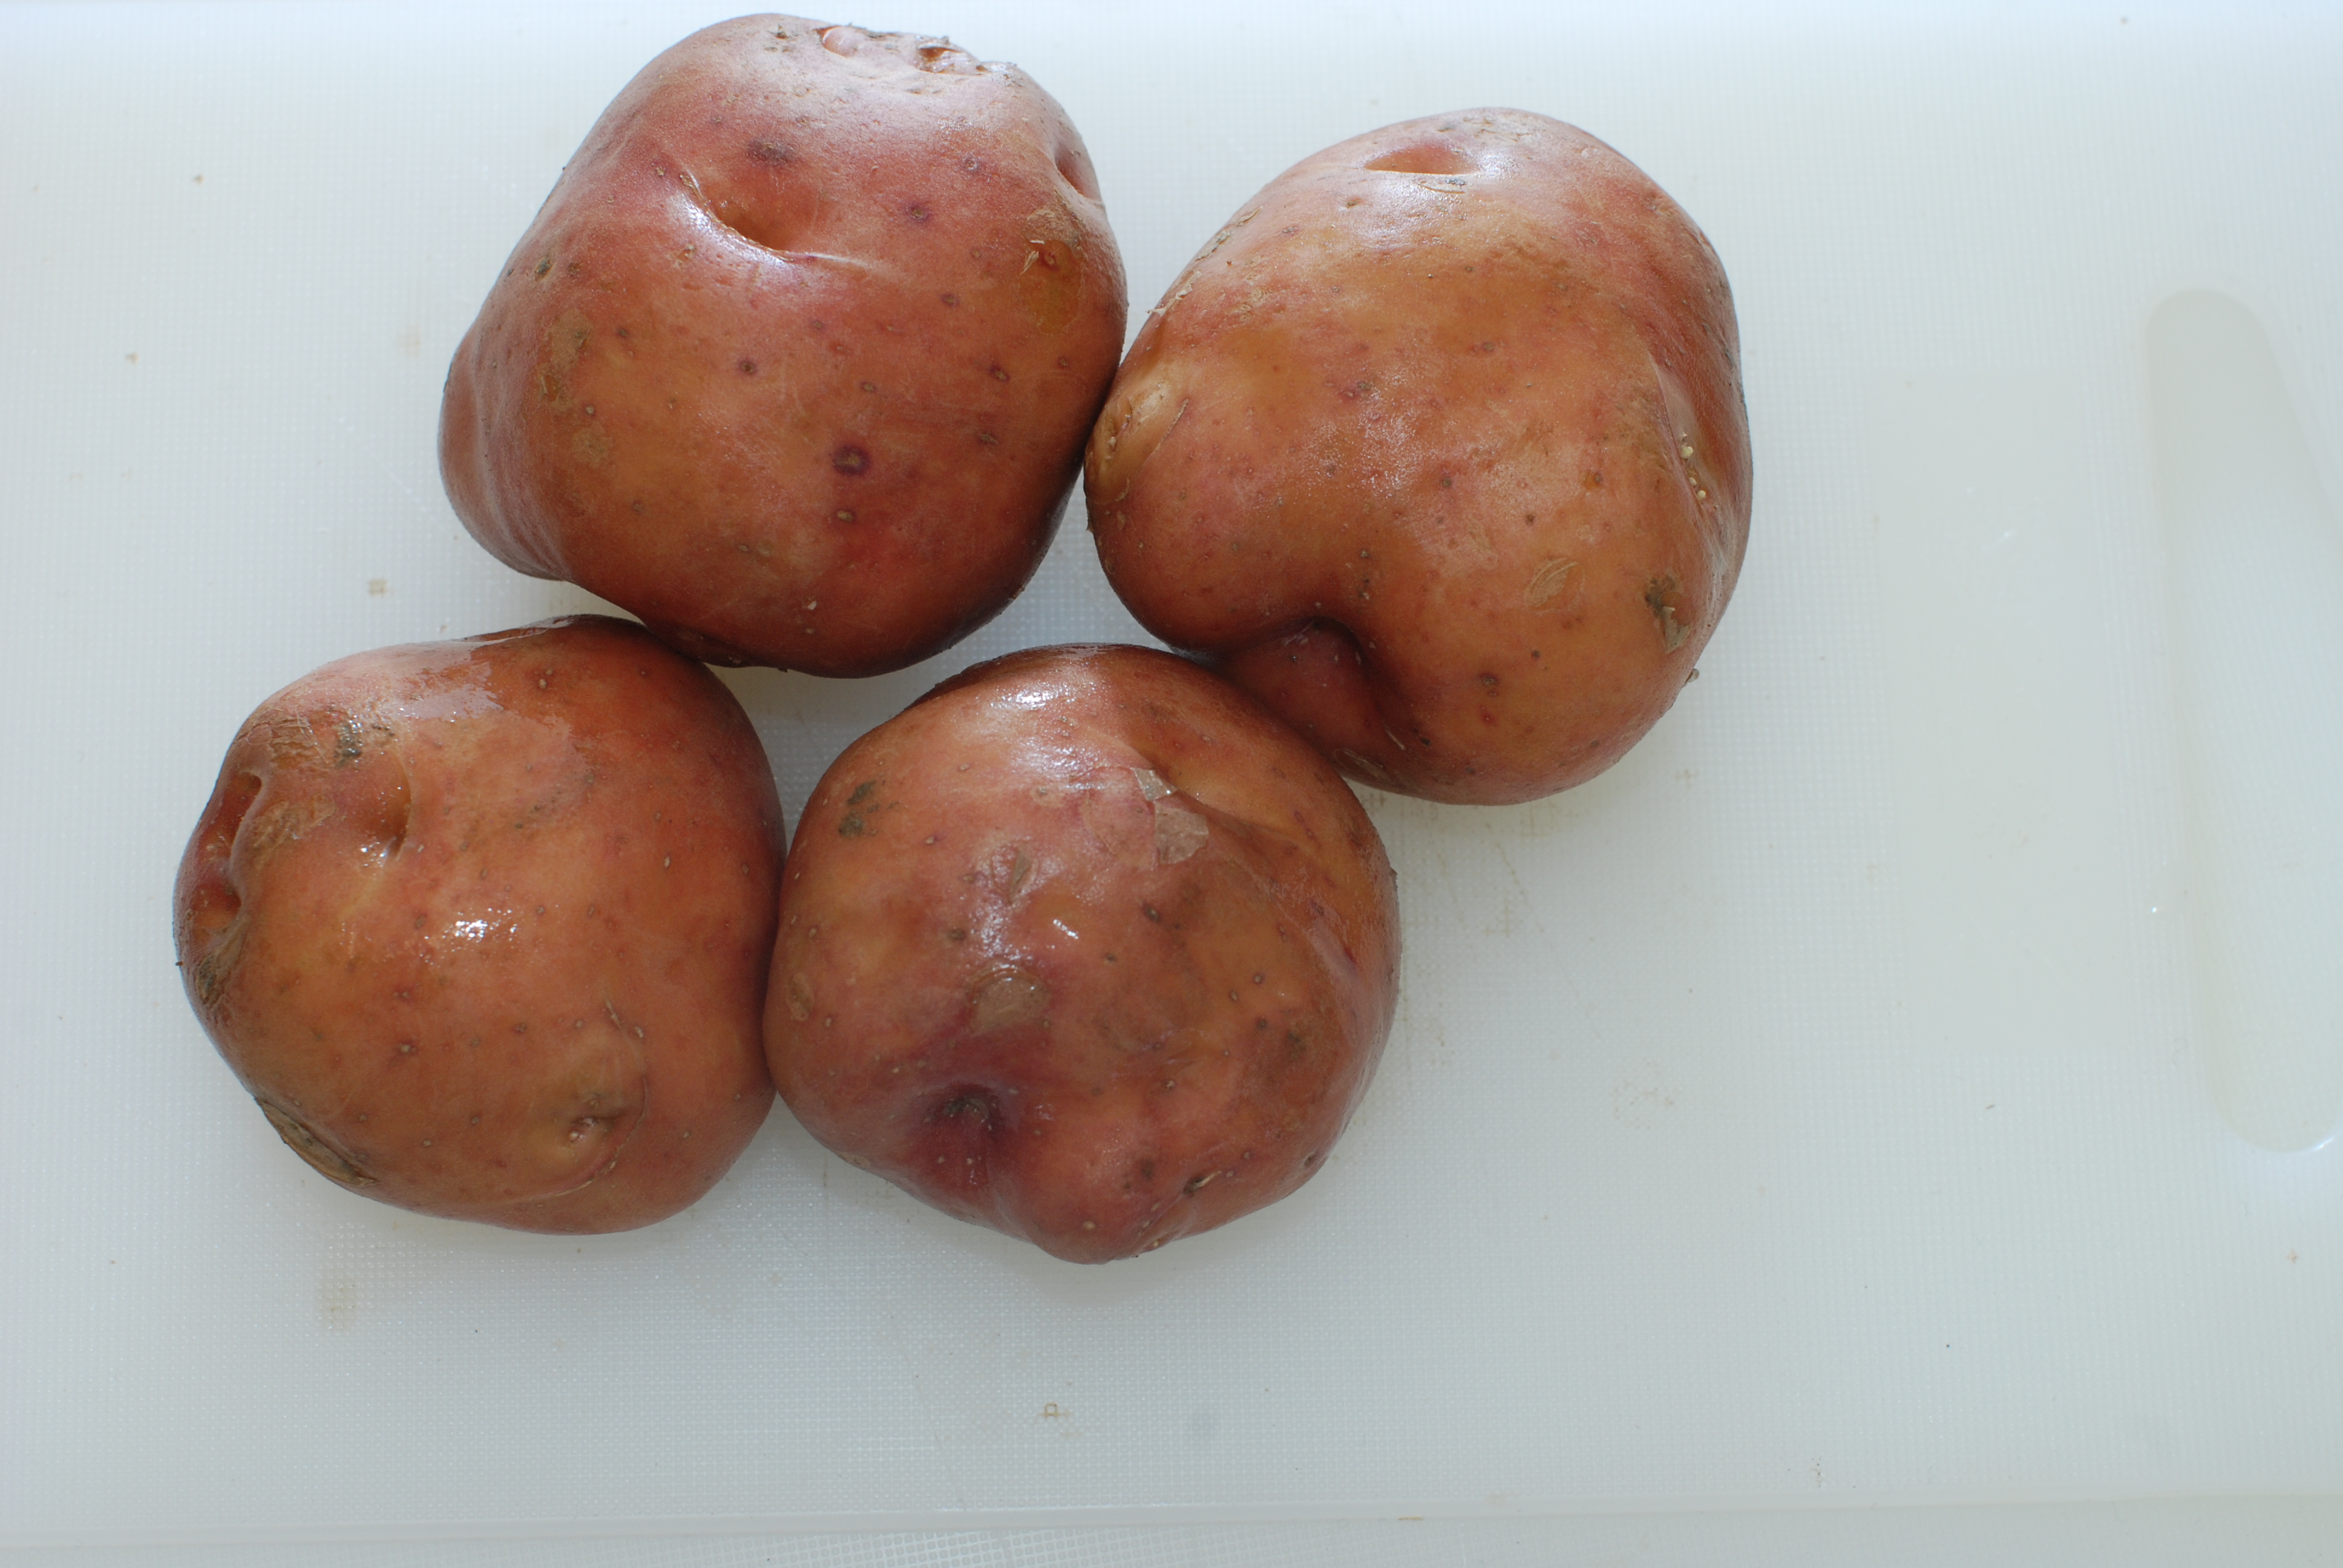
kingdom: Plantae
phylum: Tracheophyta
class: Magnoliopsida
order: Solanales
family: Solanaceae
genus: Solanum
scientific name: Solanum tuberosum
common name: Potato
